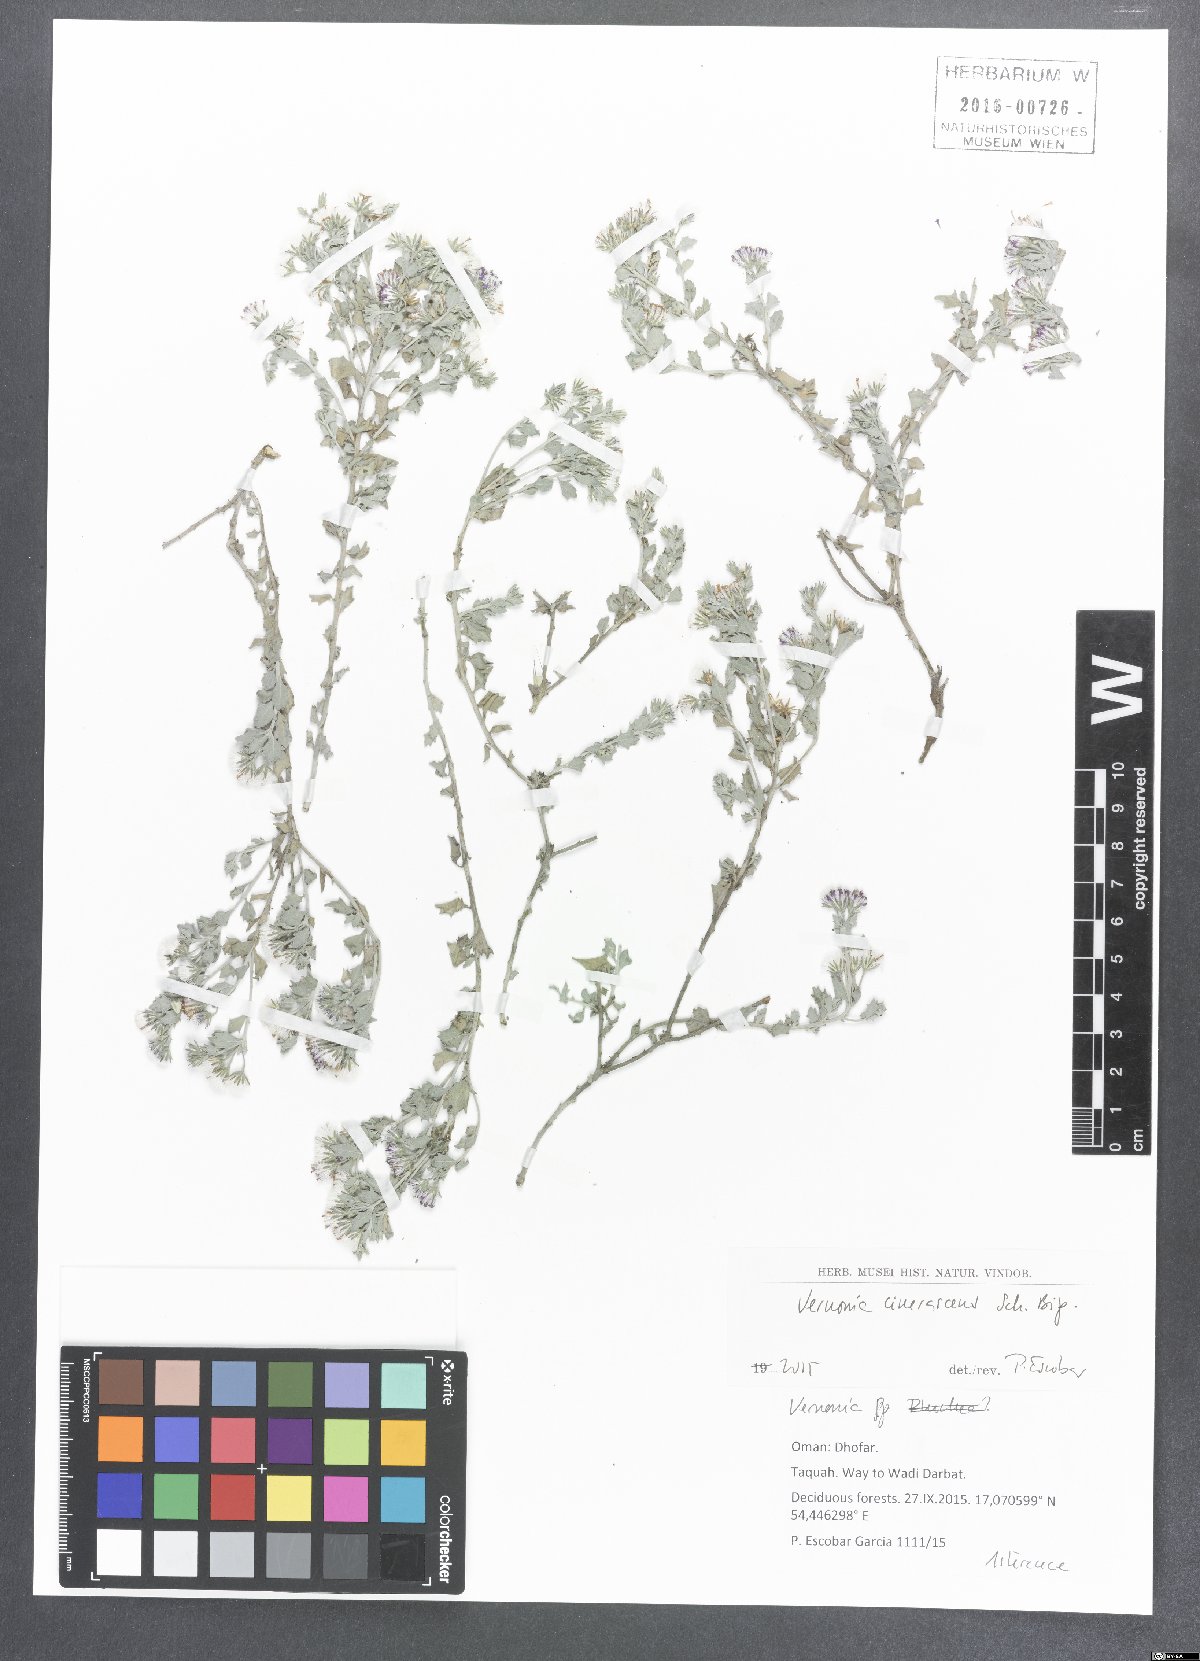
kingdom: Plantae
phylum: Tracheophyta
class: Magnoliopsida
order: Asterales
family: Asteraceae
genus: Orbivestus
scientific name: Orbivestus cinerascens
